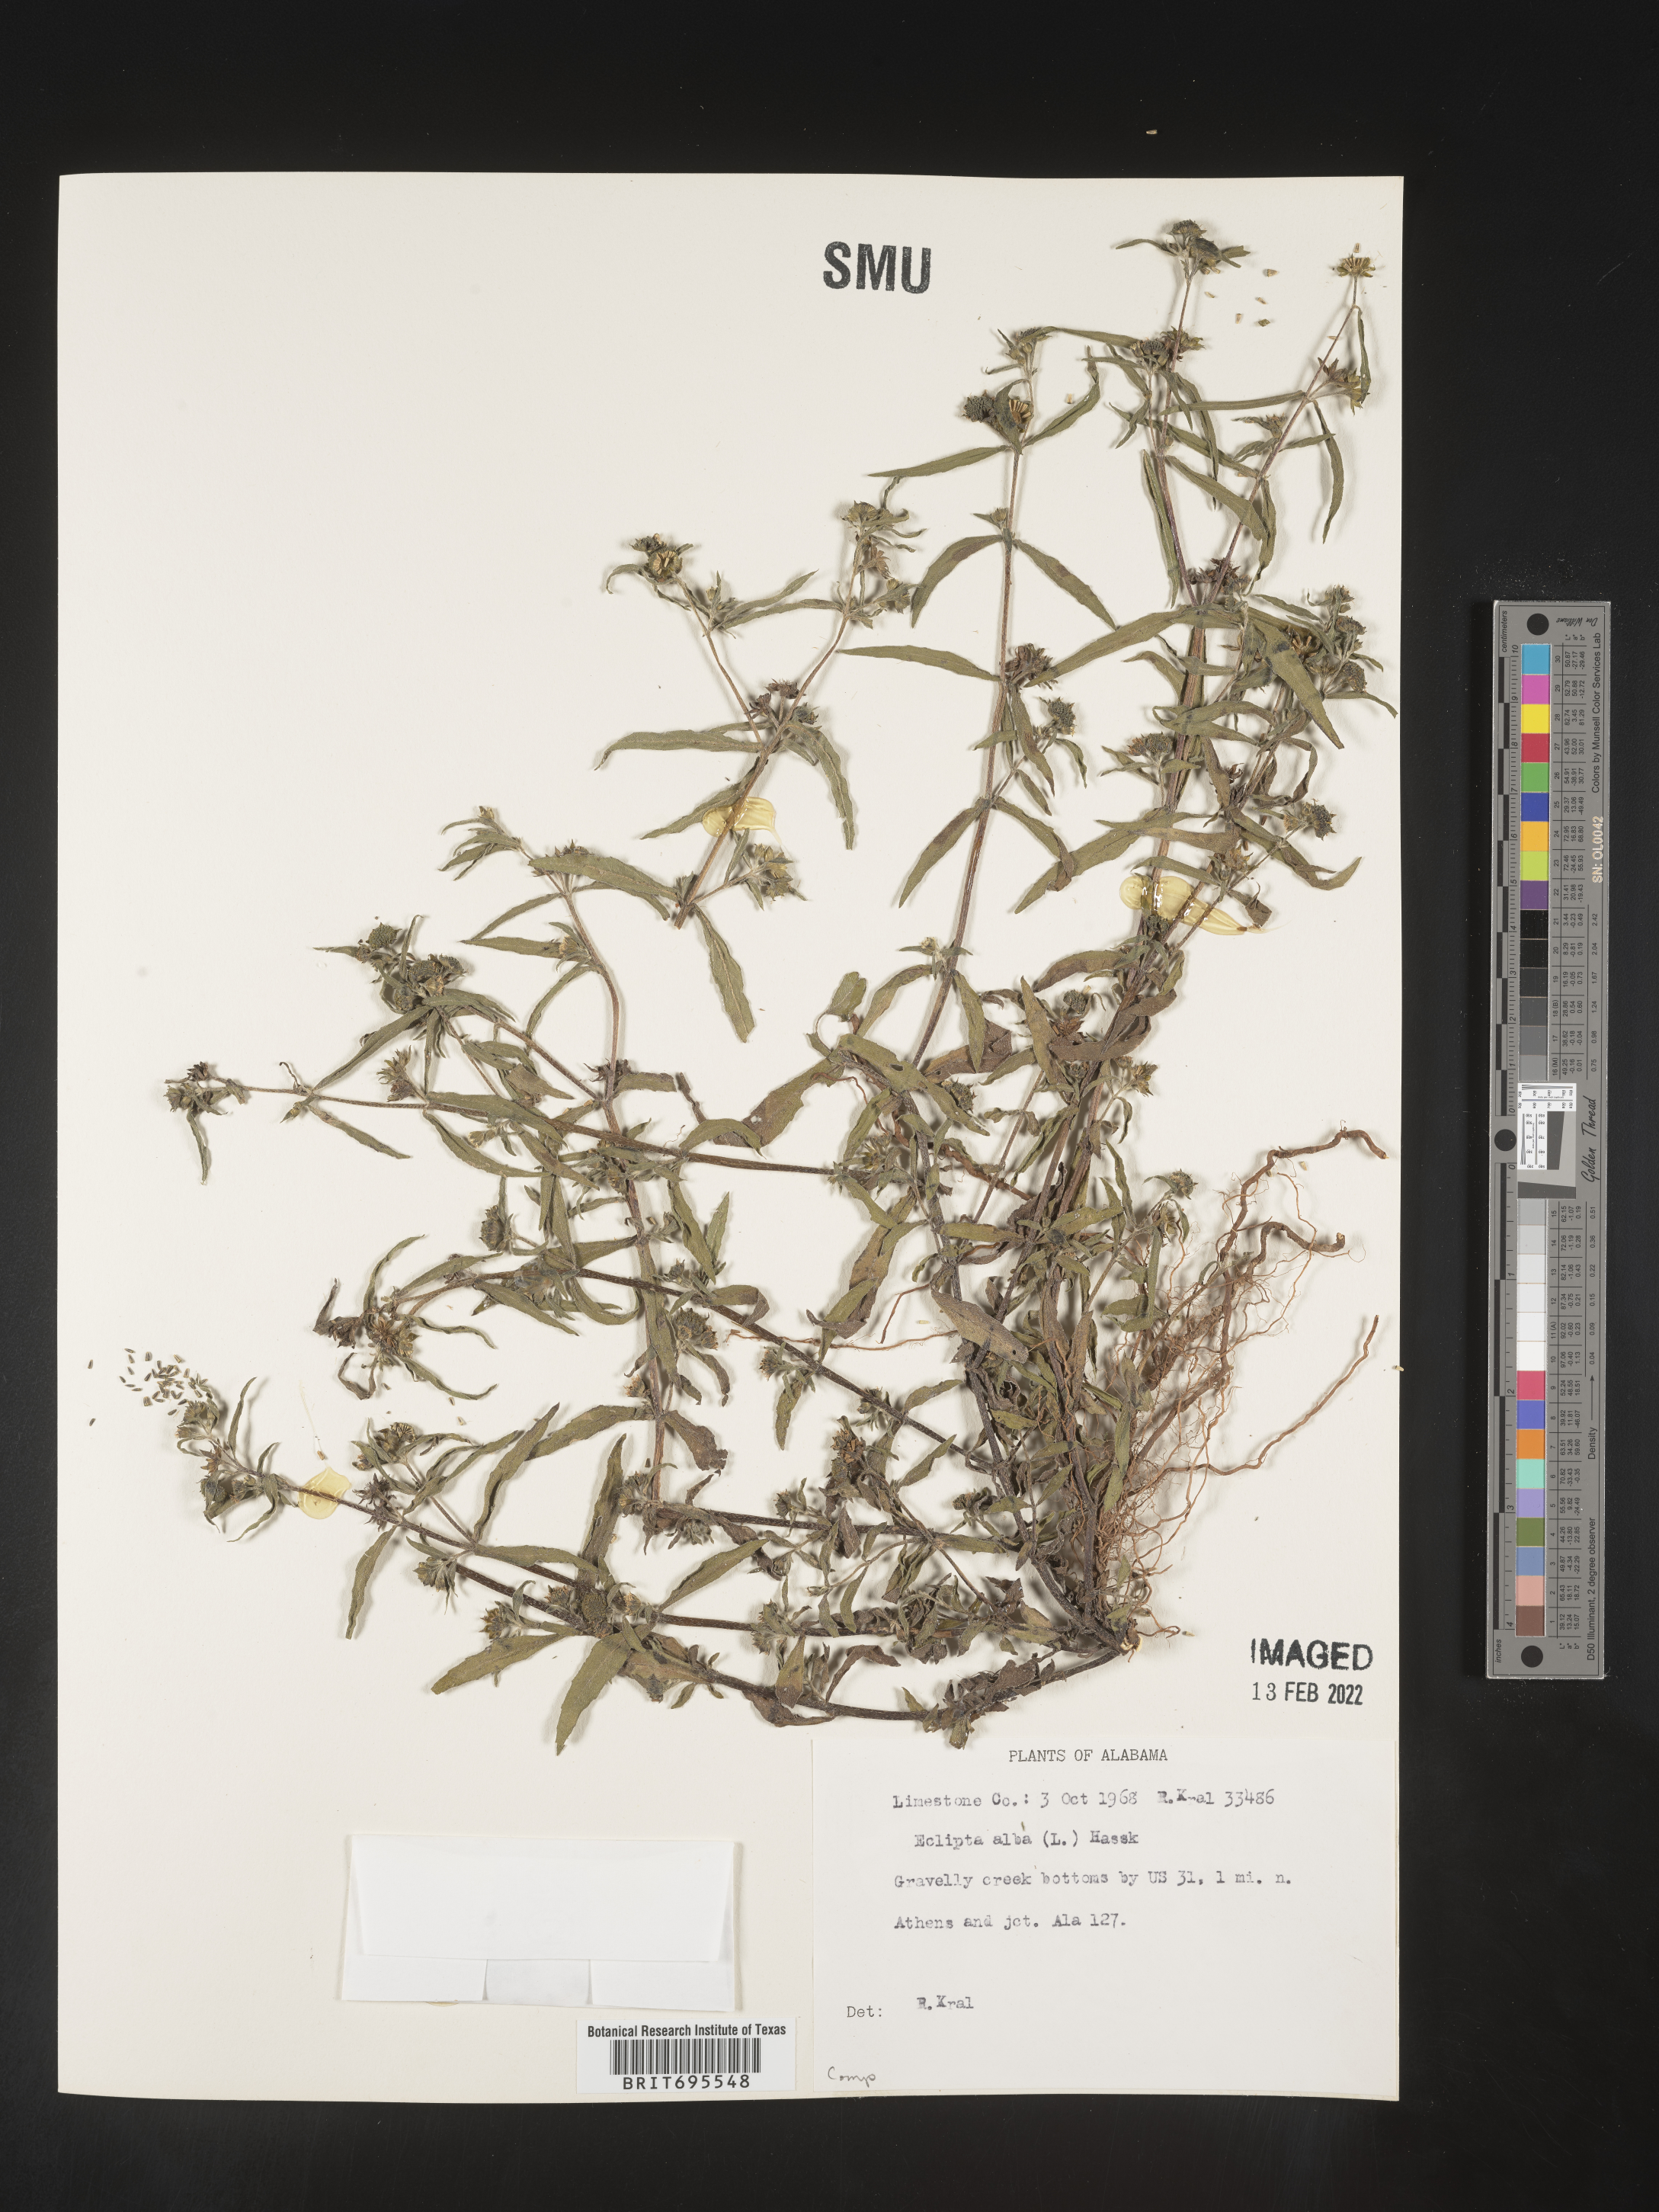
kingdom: Plantae
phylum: Tracheophyta
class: Magnoliopsida
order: Asterales
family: Asteraceae
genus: Eclipta
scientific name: Eclipta alba
